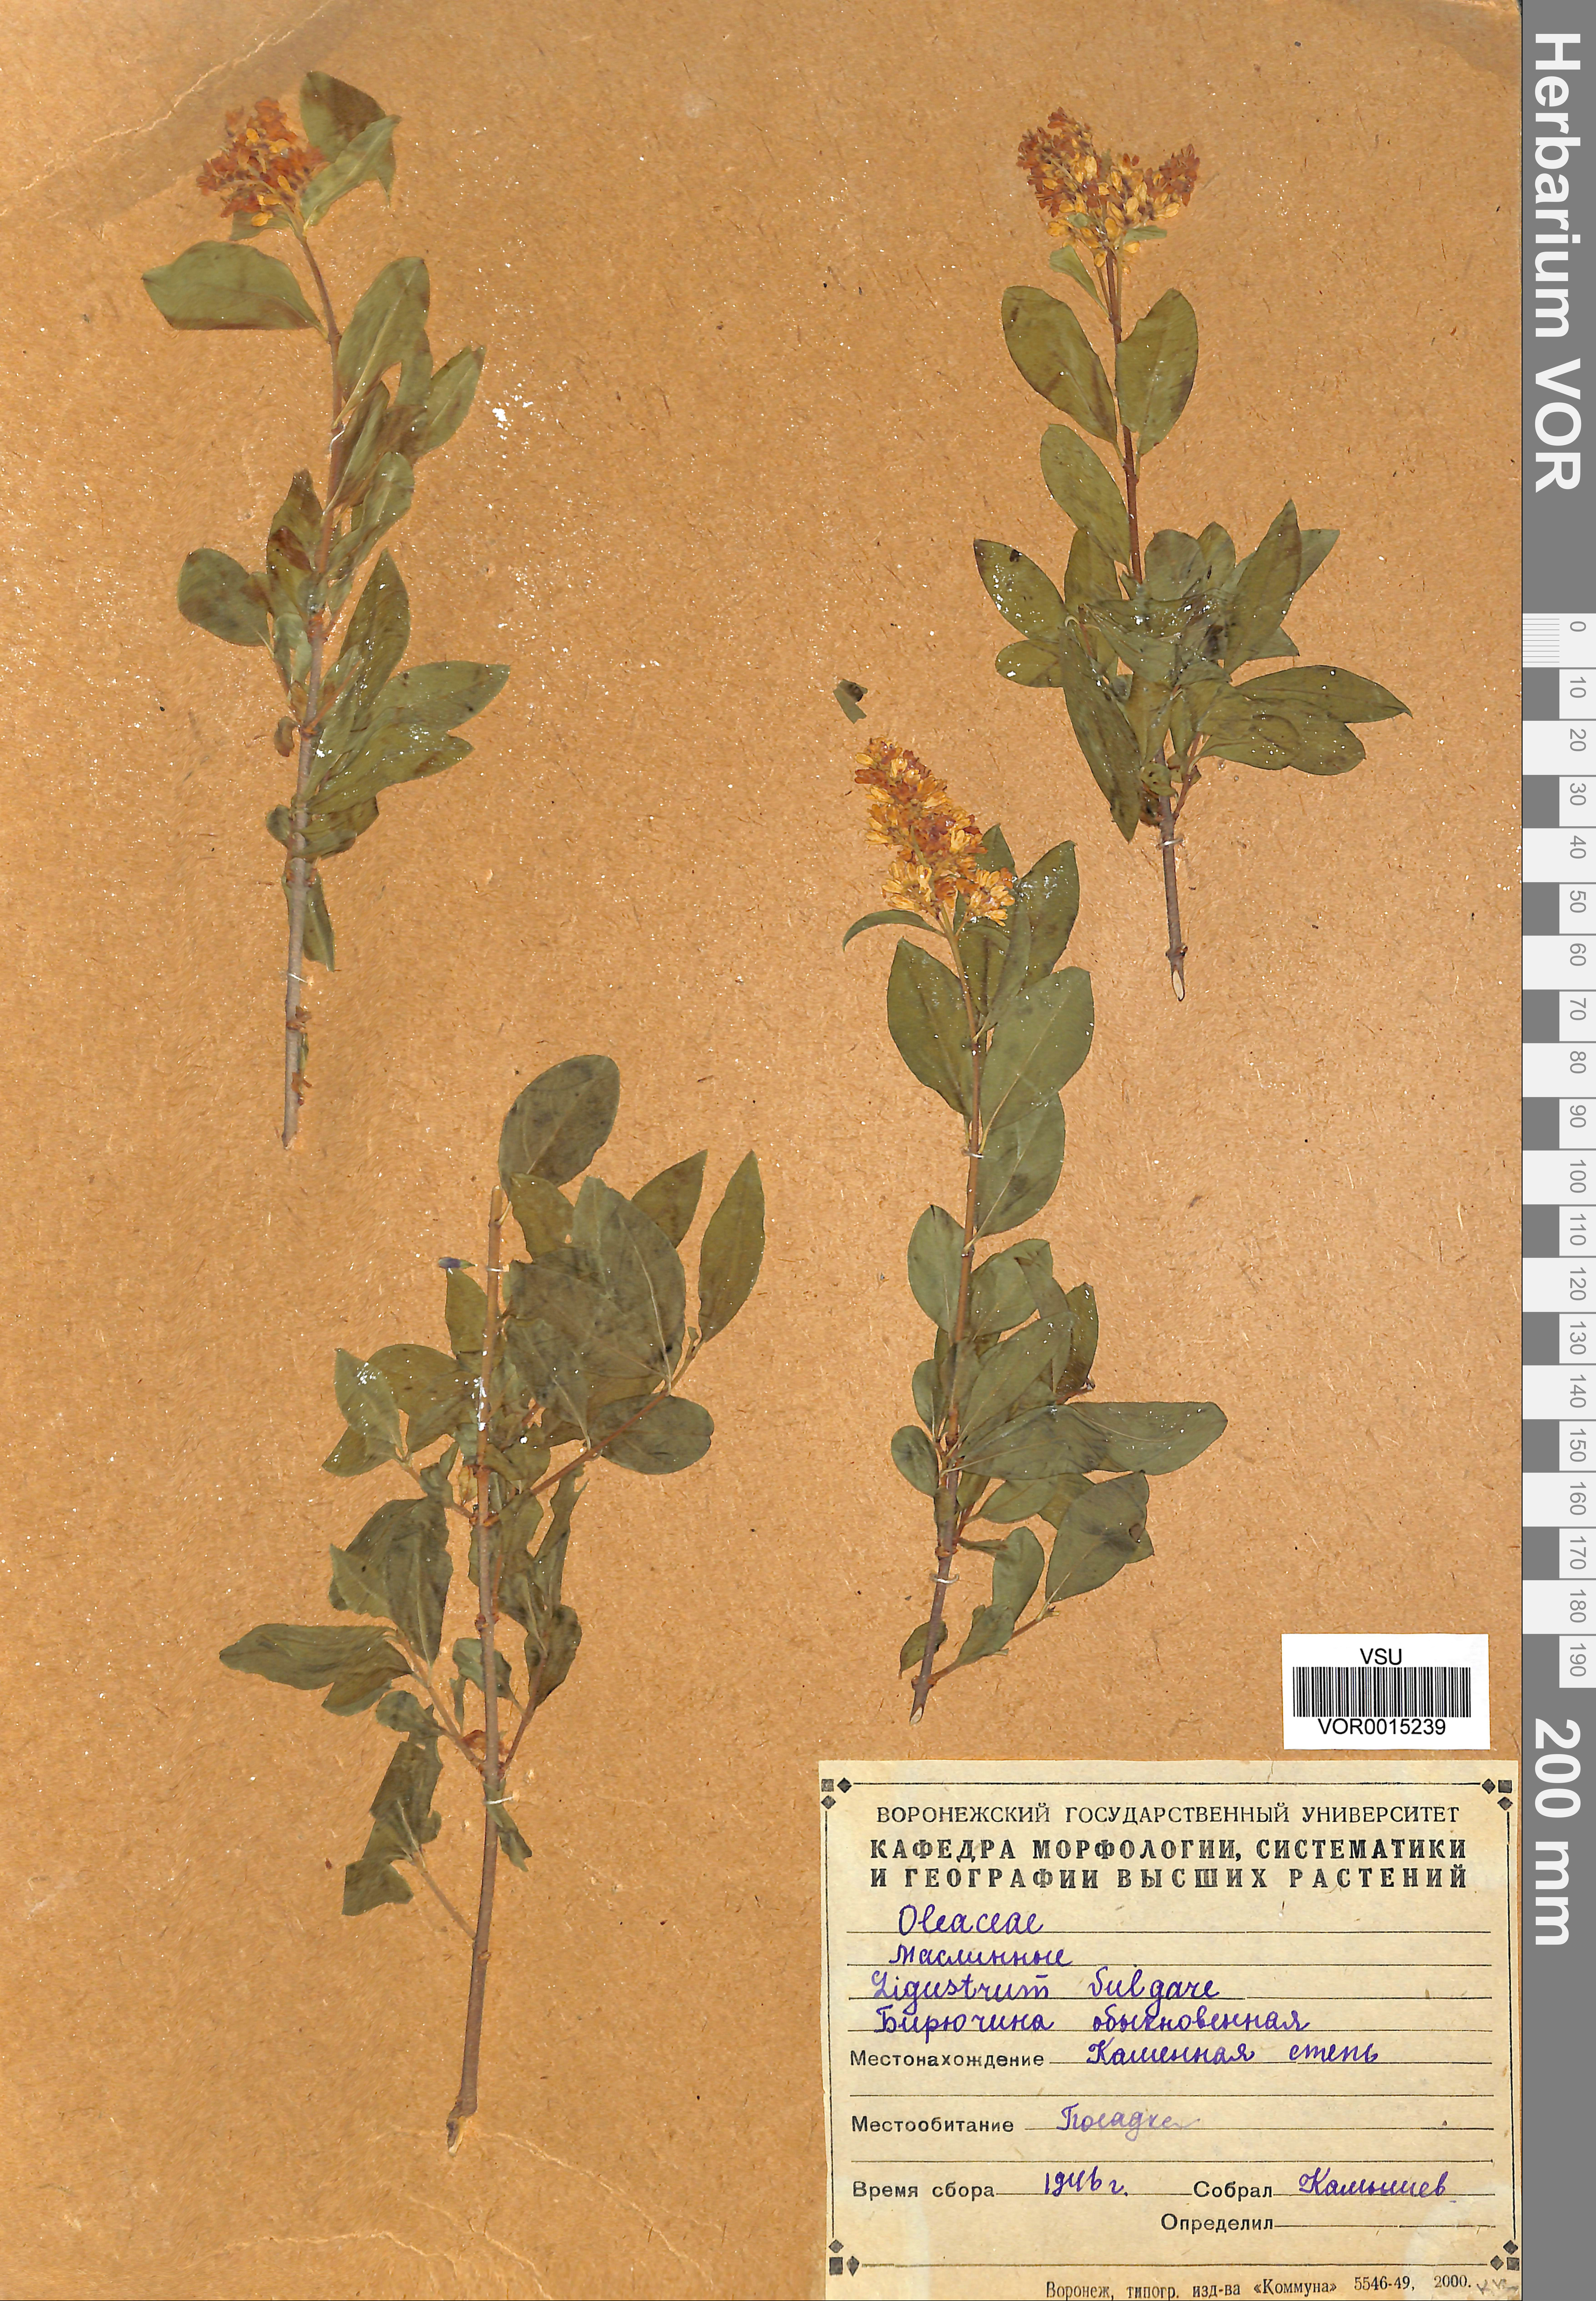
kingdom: Plantae
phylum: Tracheophyta
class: Magnoliopsida
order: Lamiales
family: Oleaceae
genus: Ligustrum
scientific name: Ligustrum vulgare
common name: Wild privet
